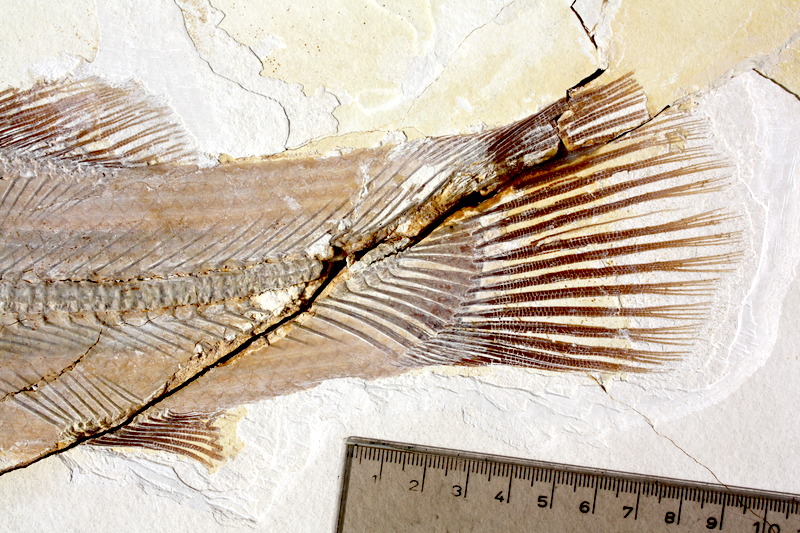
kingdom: Animalia
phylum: Chordata
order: Amiiformes
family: Amiidae
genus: Amiopsis
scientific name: Amiopsis lepidota
